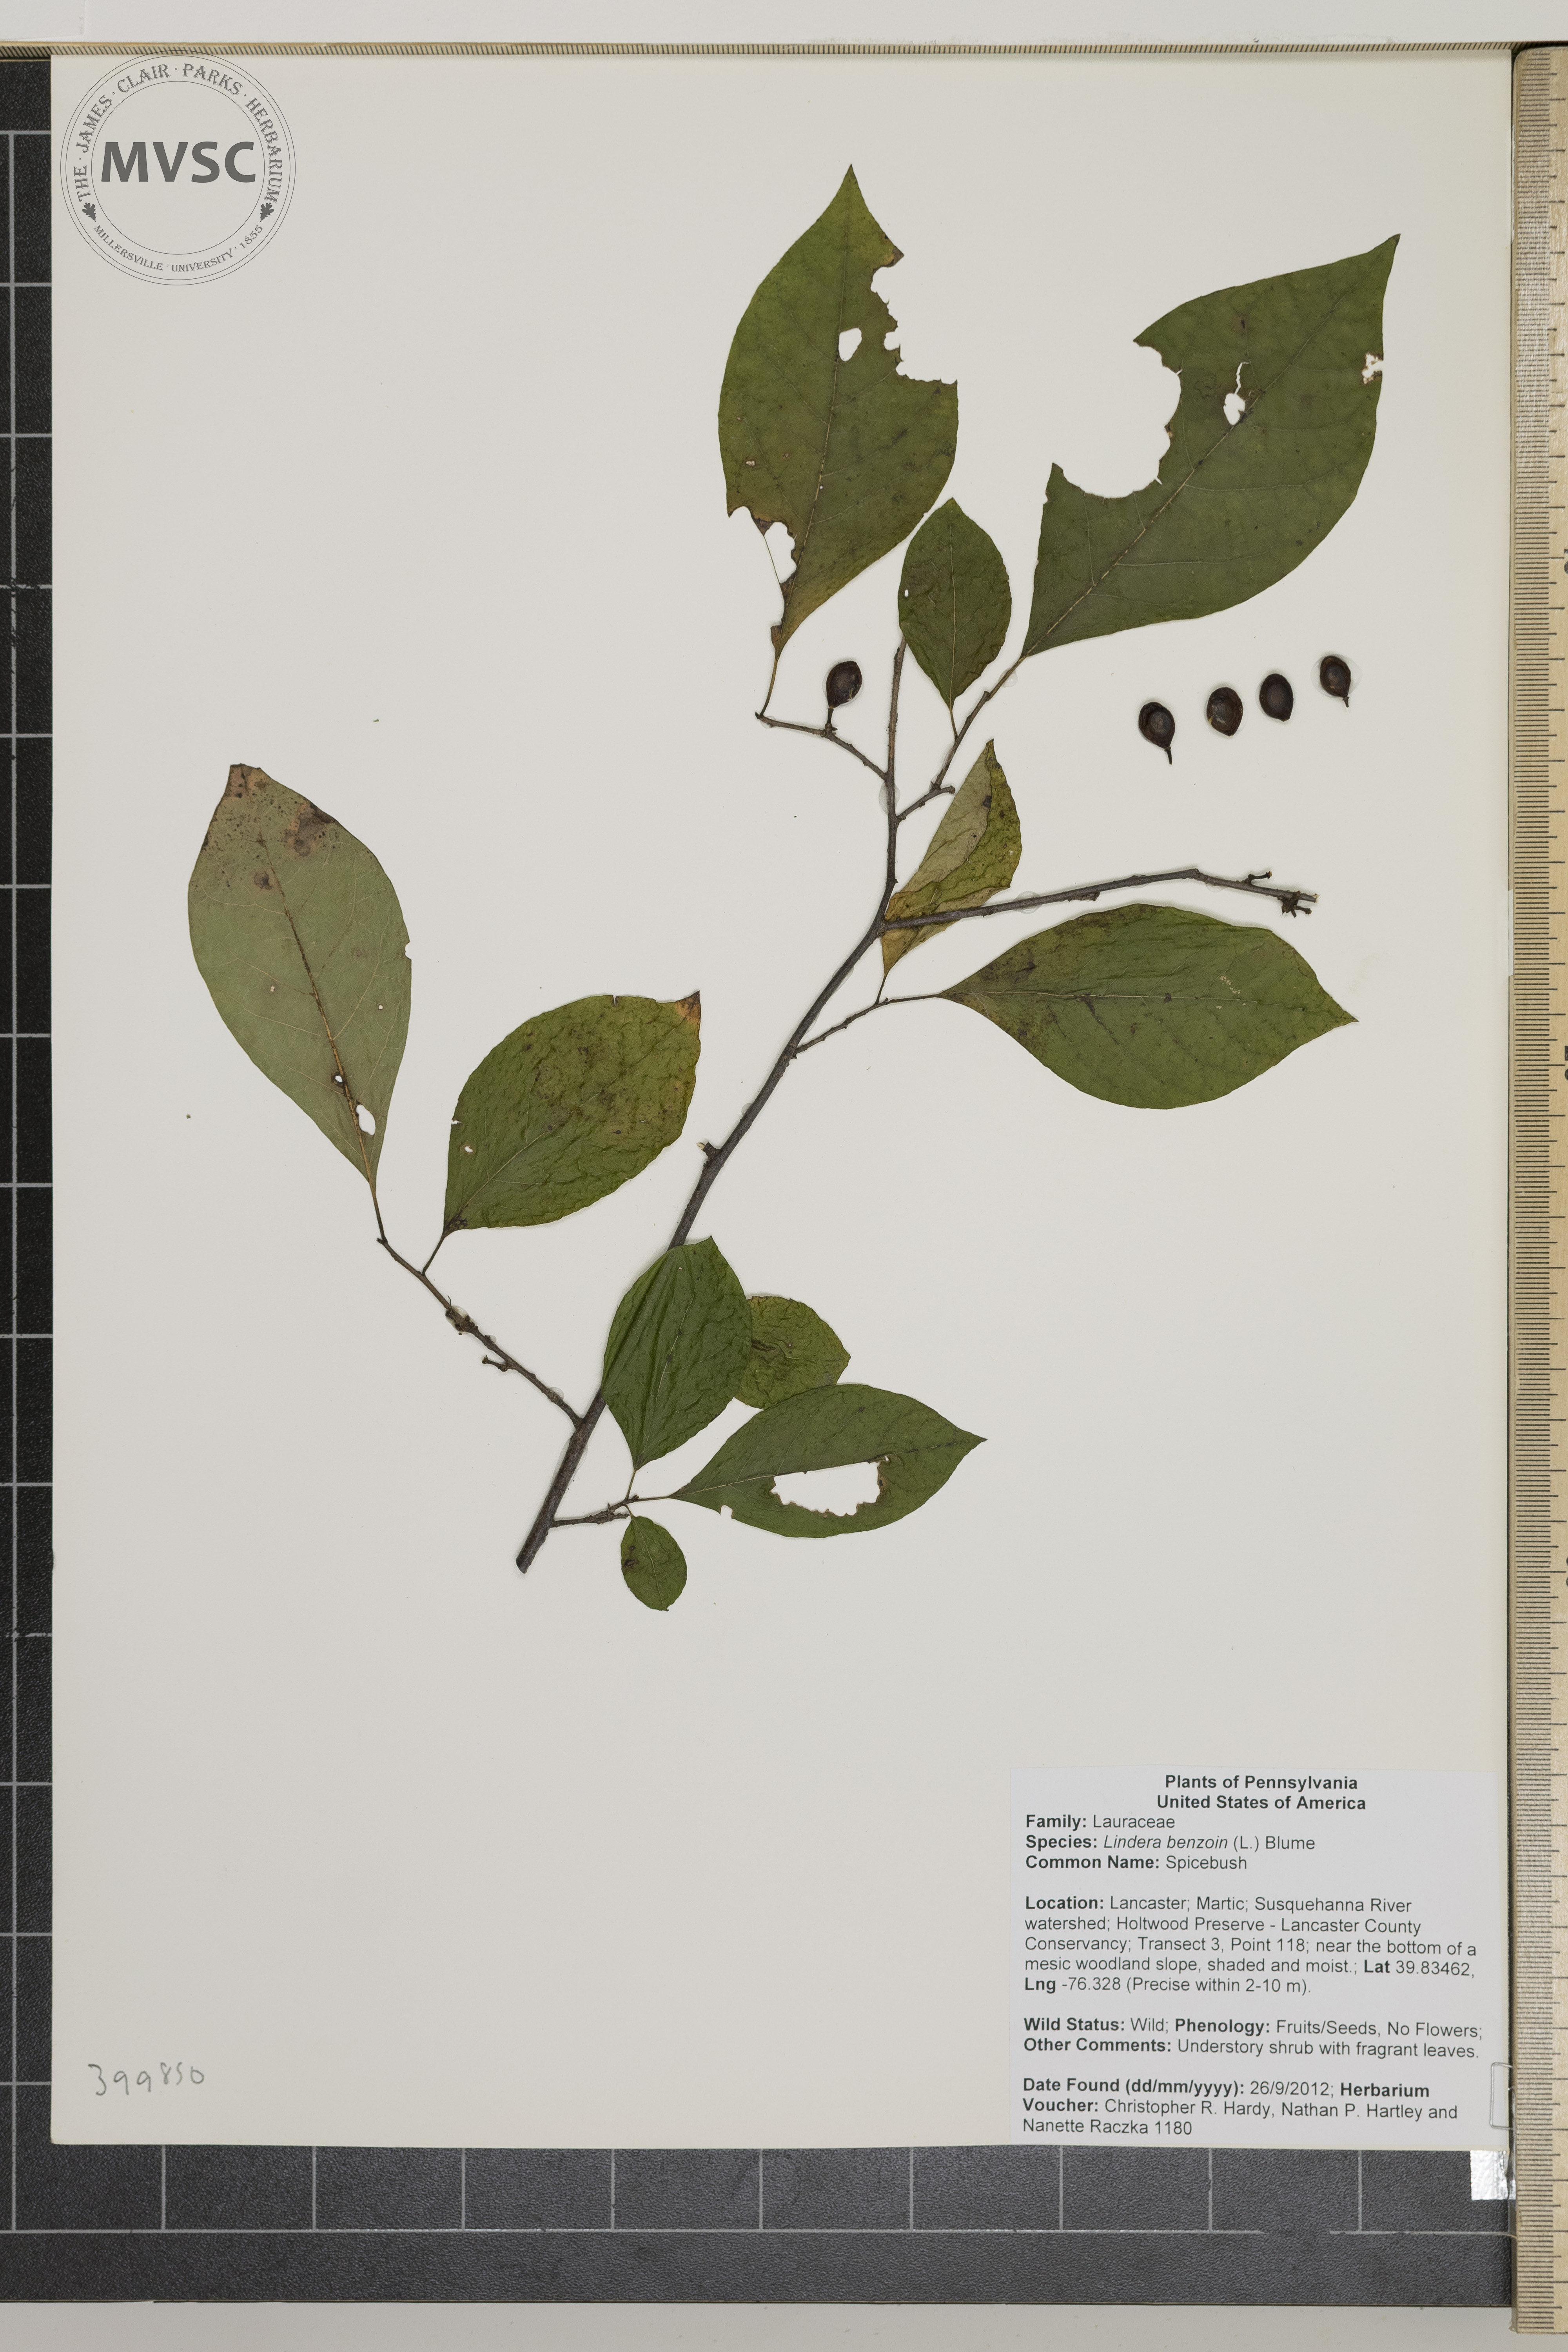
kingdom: Plantae
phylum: Tracheophyta
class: Magnoliopsida
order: Laurales
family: Lauraceae
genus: Lindera
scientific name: Lindera benzoin
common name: Spicebush
